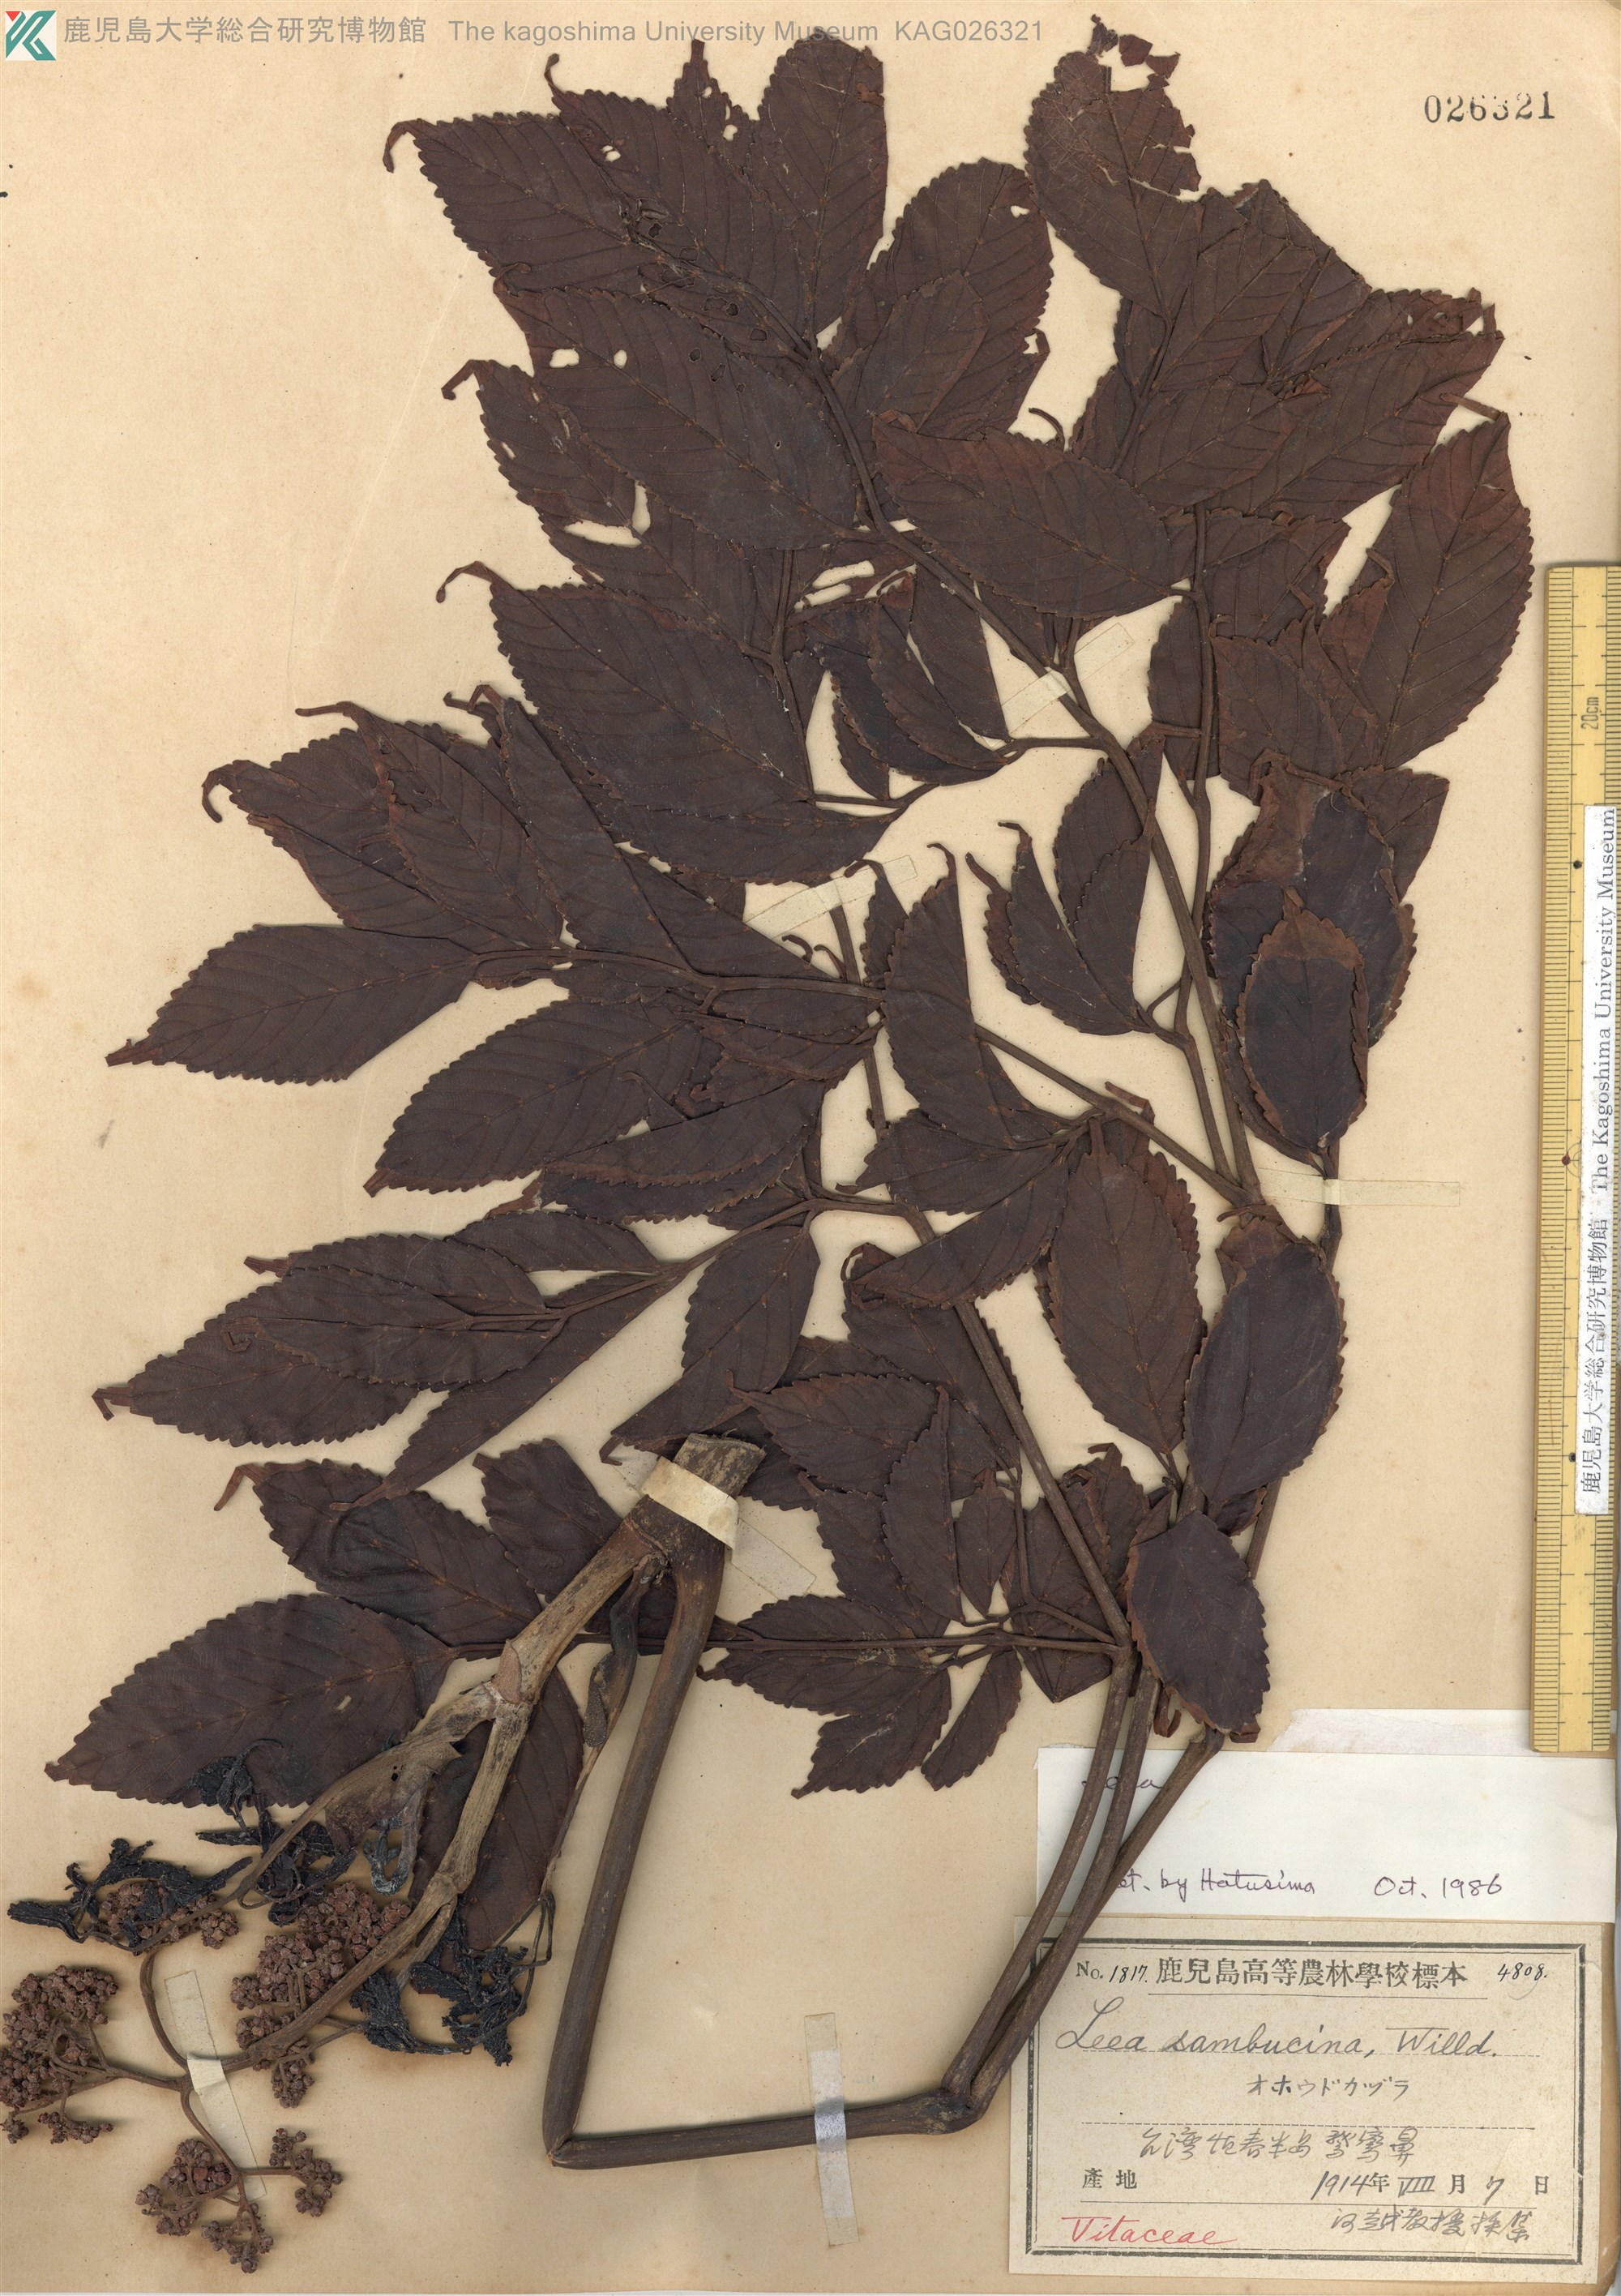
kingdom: Plantae
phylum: Tracheophyta
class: Magnoliopsida
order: Vitales
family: Vitaceae
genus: Leea
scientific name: Leea
